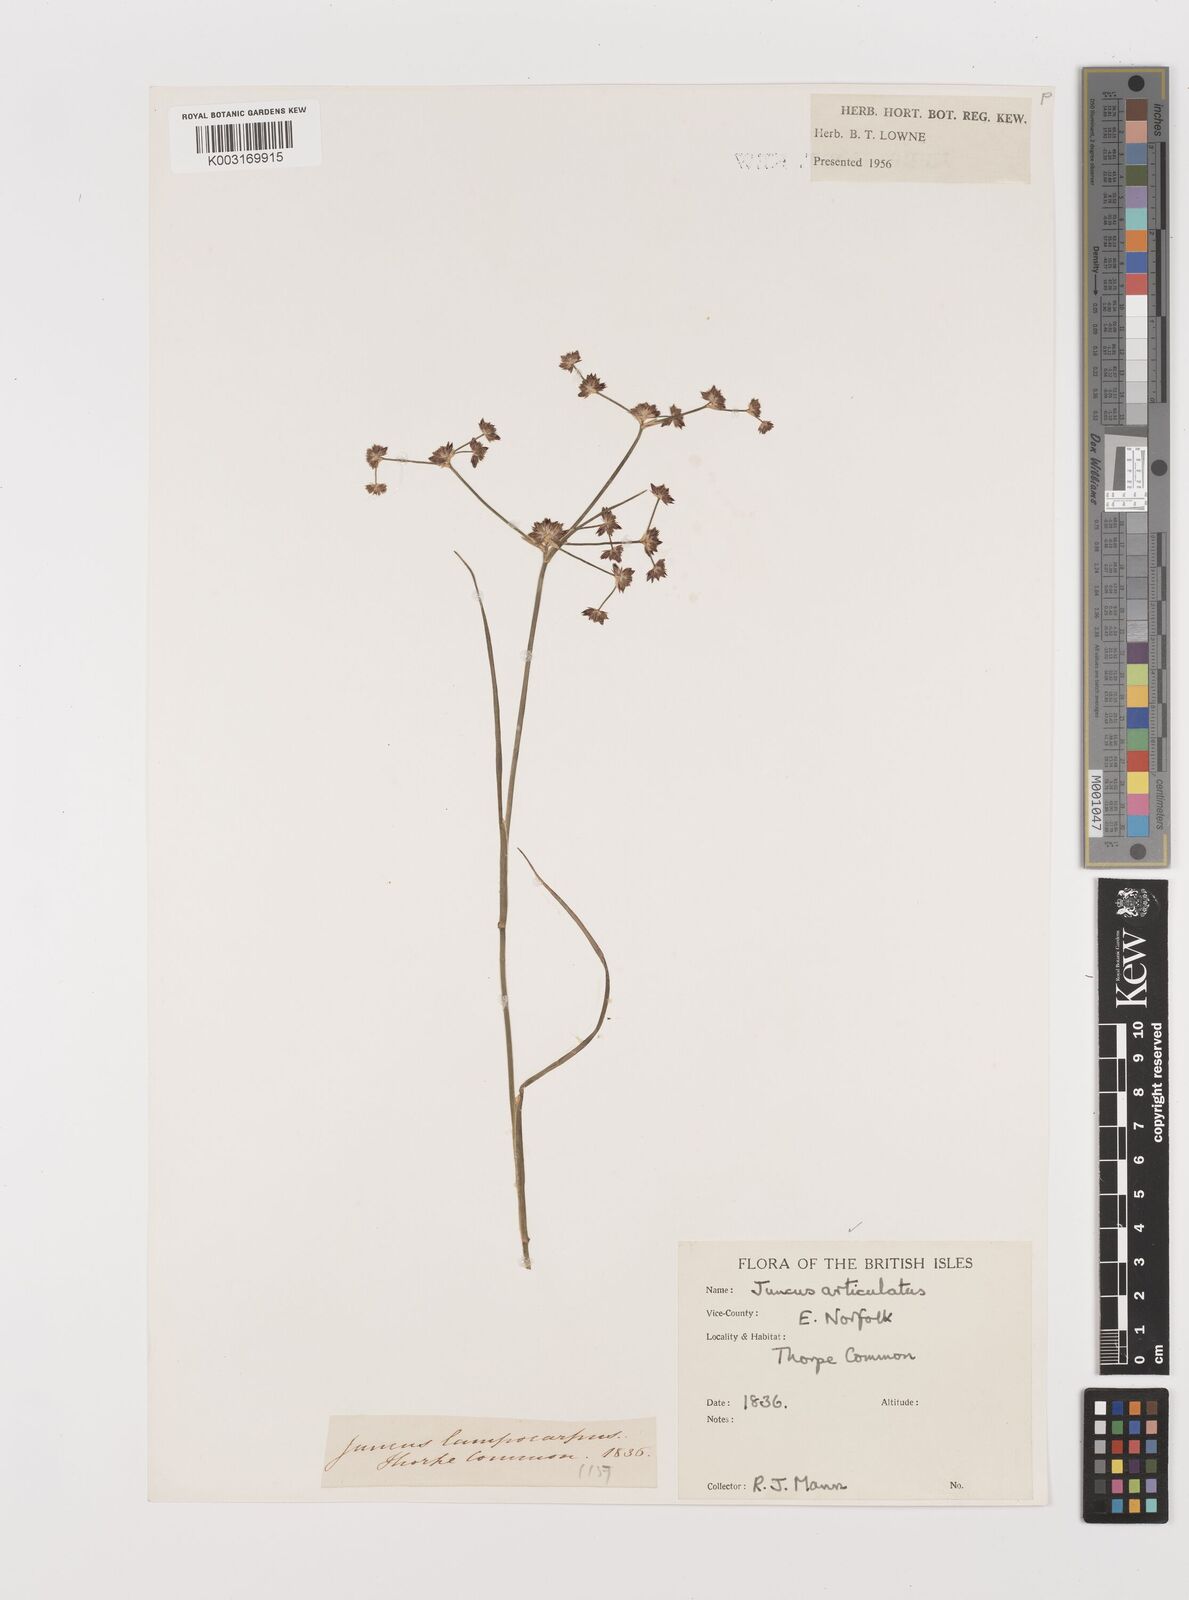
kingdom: Plantae
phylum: Tracheophyta
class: Liliopsida
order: Poales
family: Juncaceae
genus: Juncus
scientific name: Juncus articulatus
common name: Jointed rush
